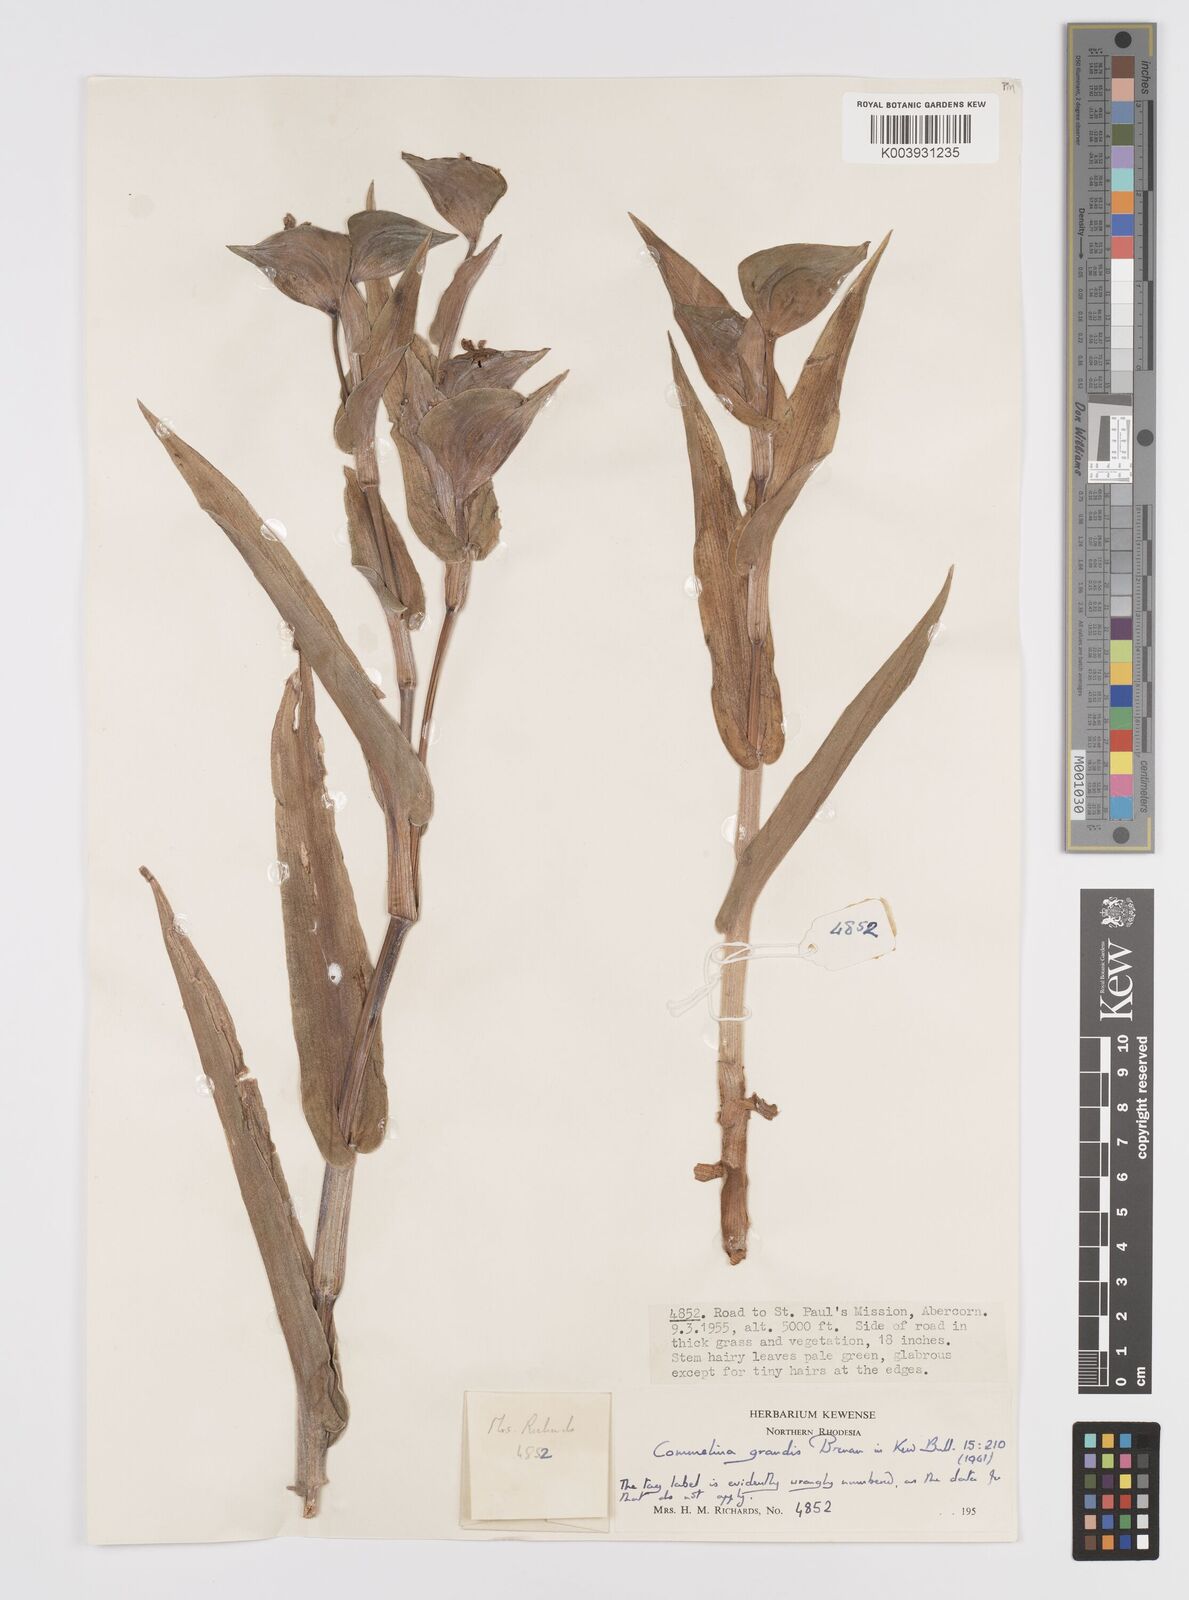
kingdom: Plantae
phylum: Tracheophyta
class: Liliopsida
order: Commelinales
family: Commelinaceae
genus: Commelina
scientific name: Commelina grandis
